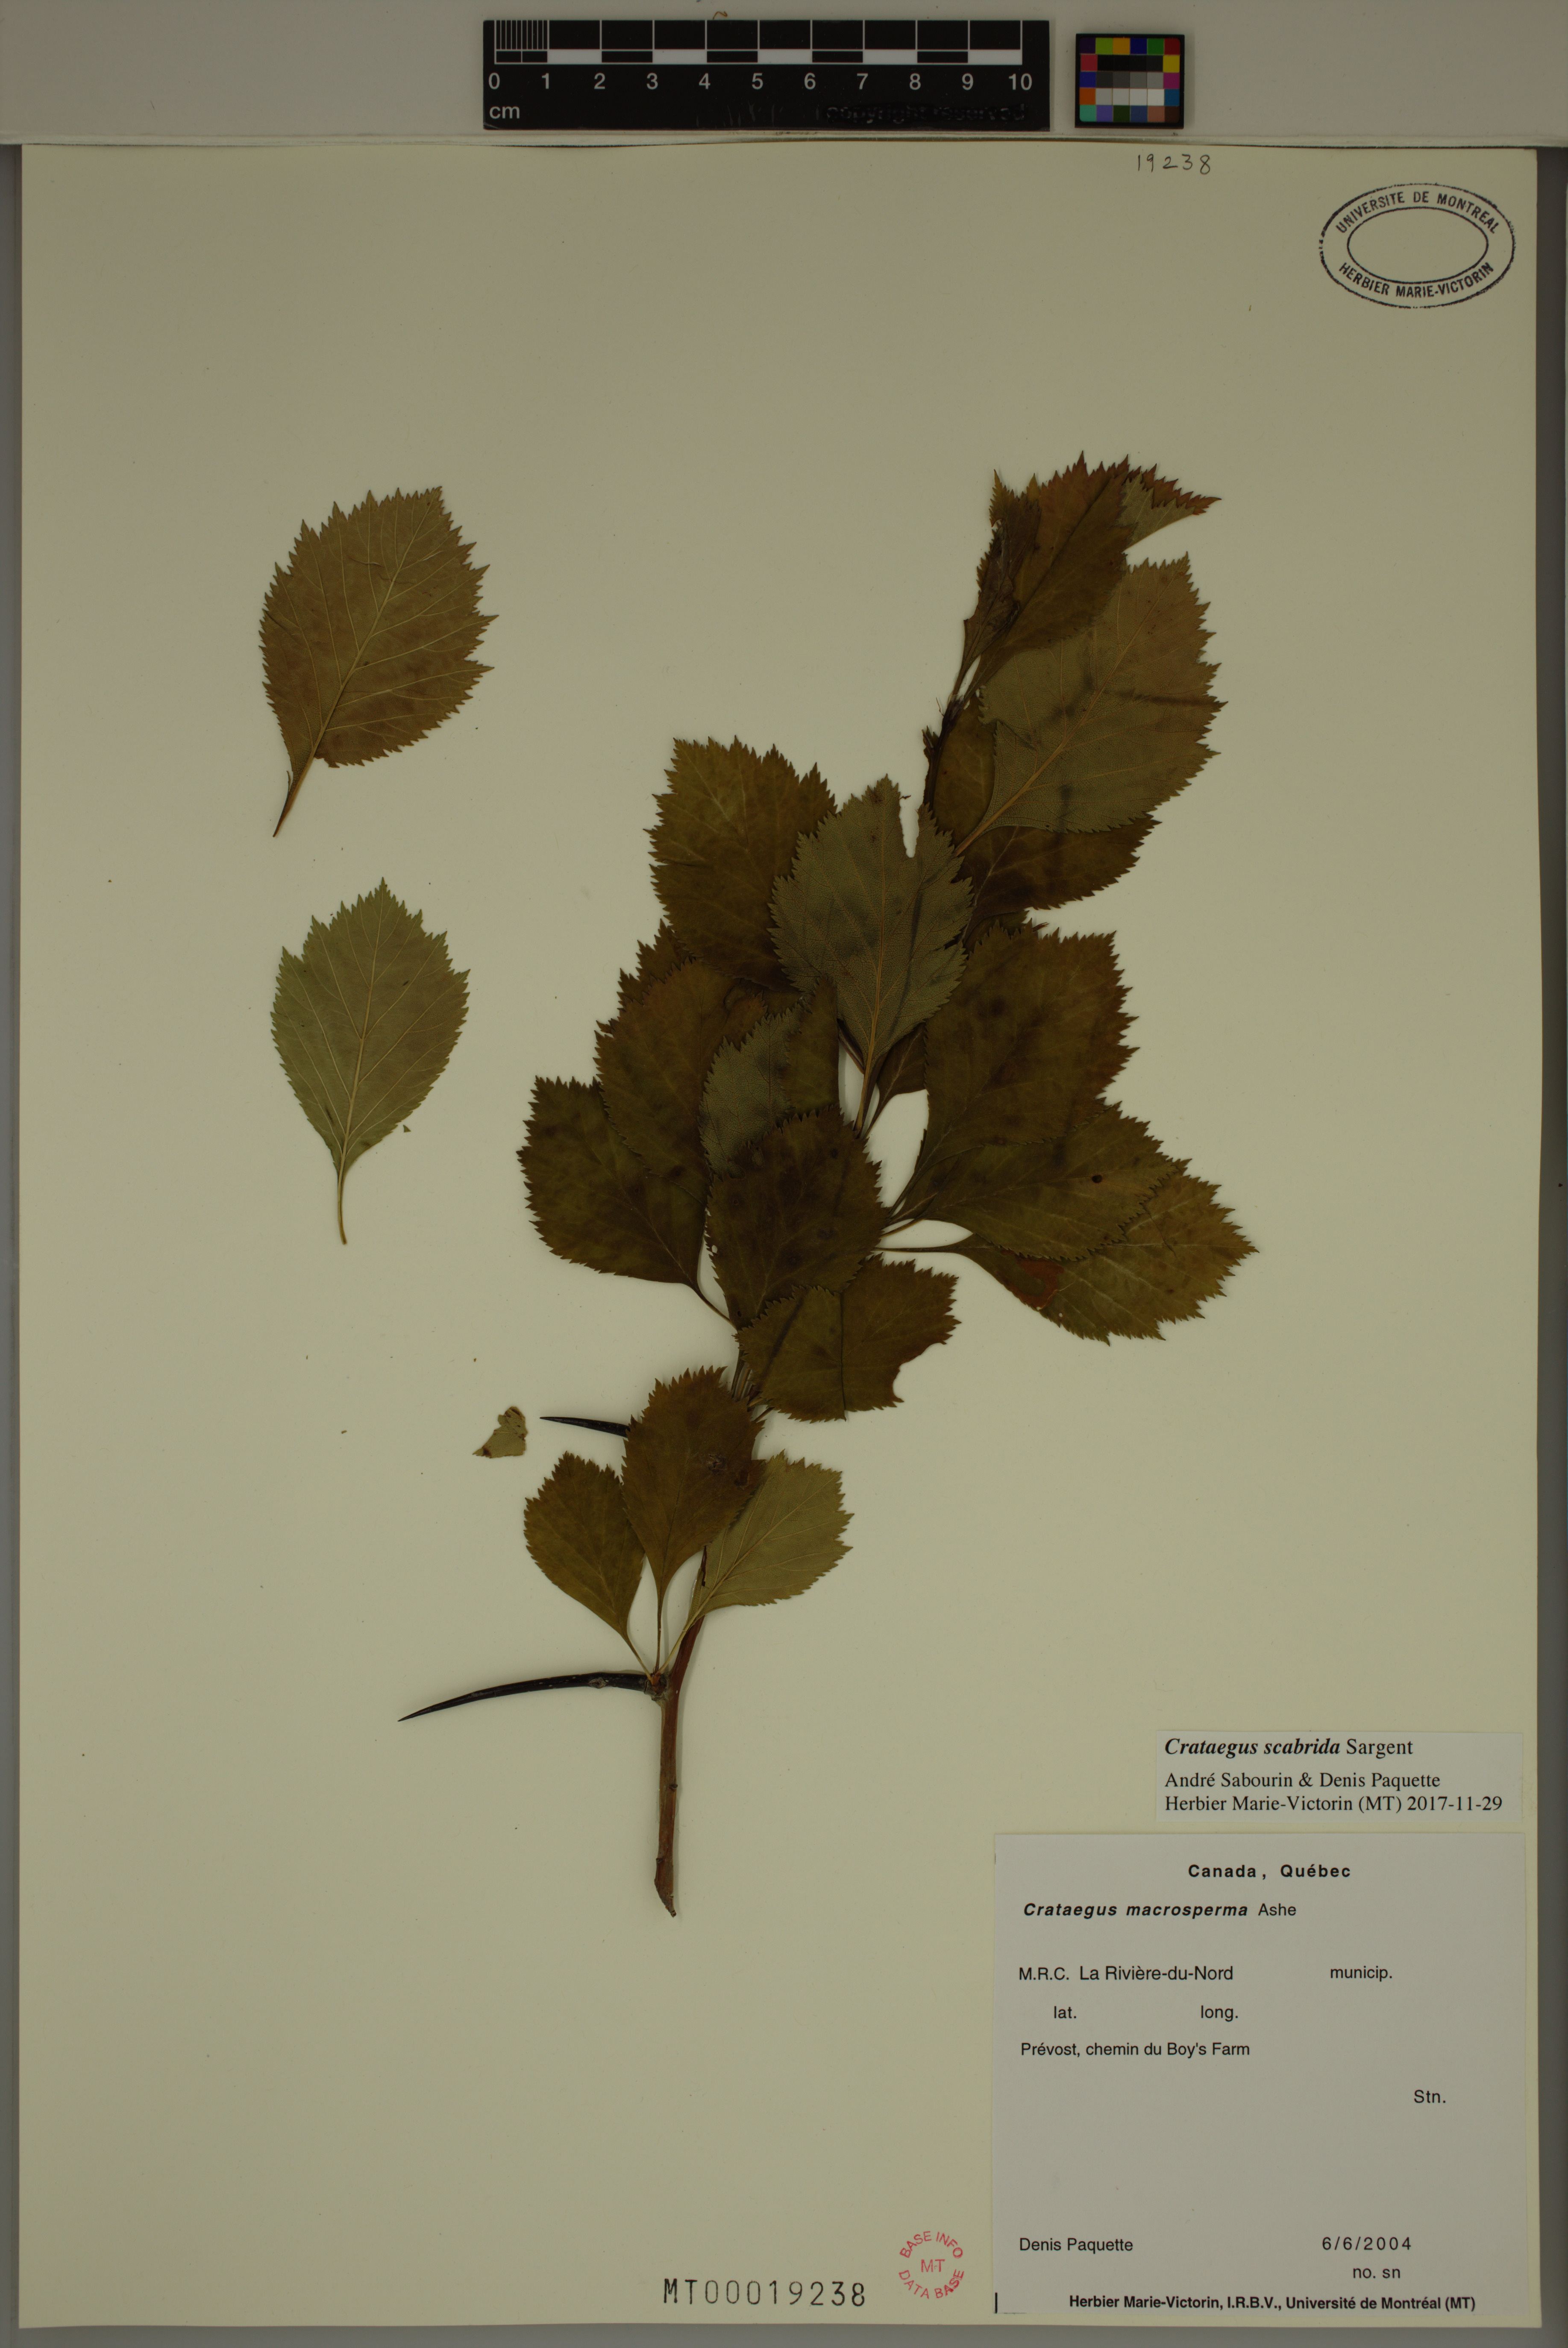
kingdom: Plantae
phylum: Tracheophyta
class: Magnoliopsida
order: Rosales
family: Rosaceae
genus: Crataegus
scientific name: Crataegus scabrida
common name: Rough hawthorn
